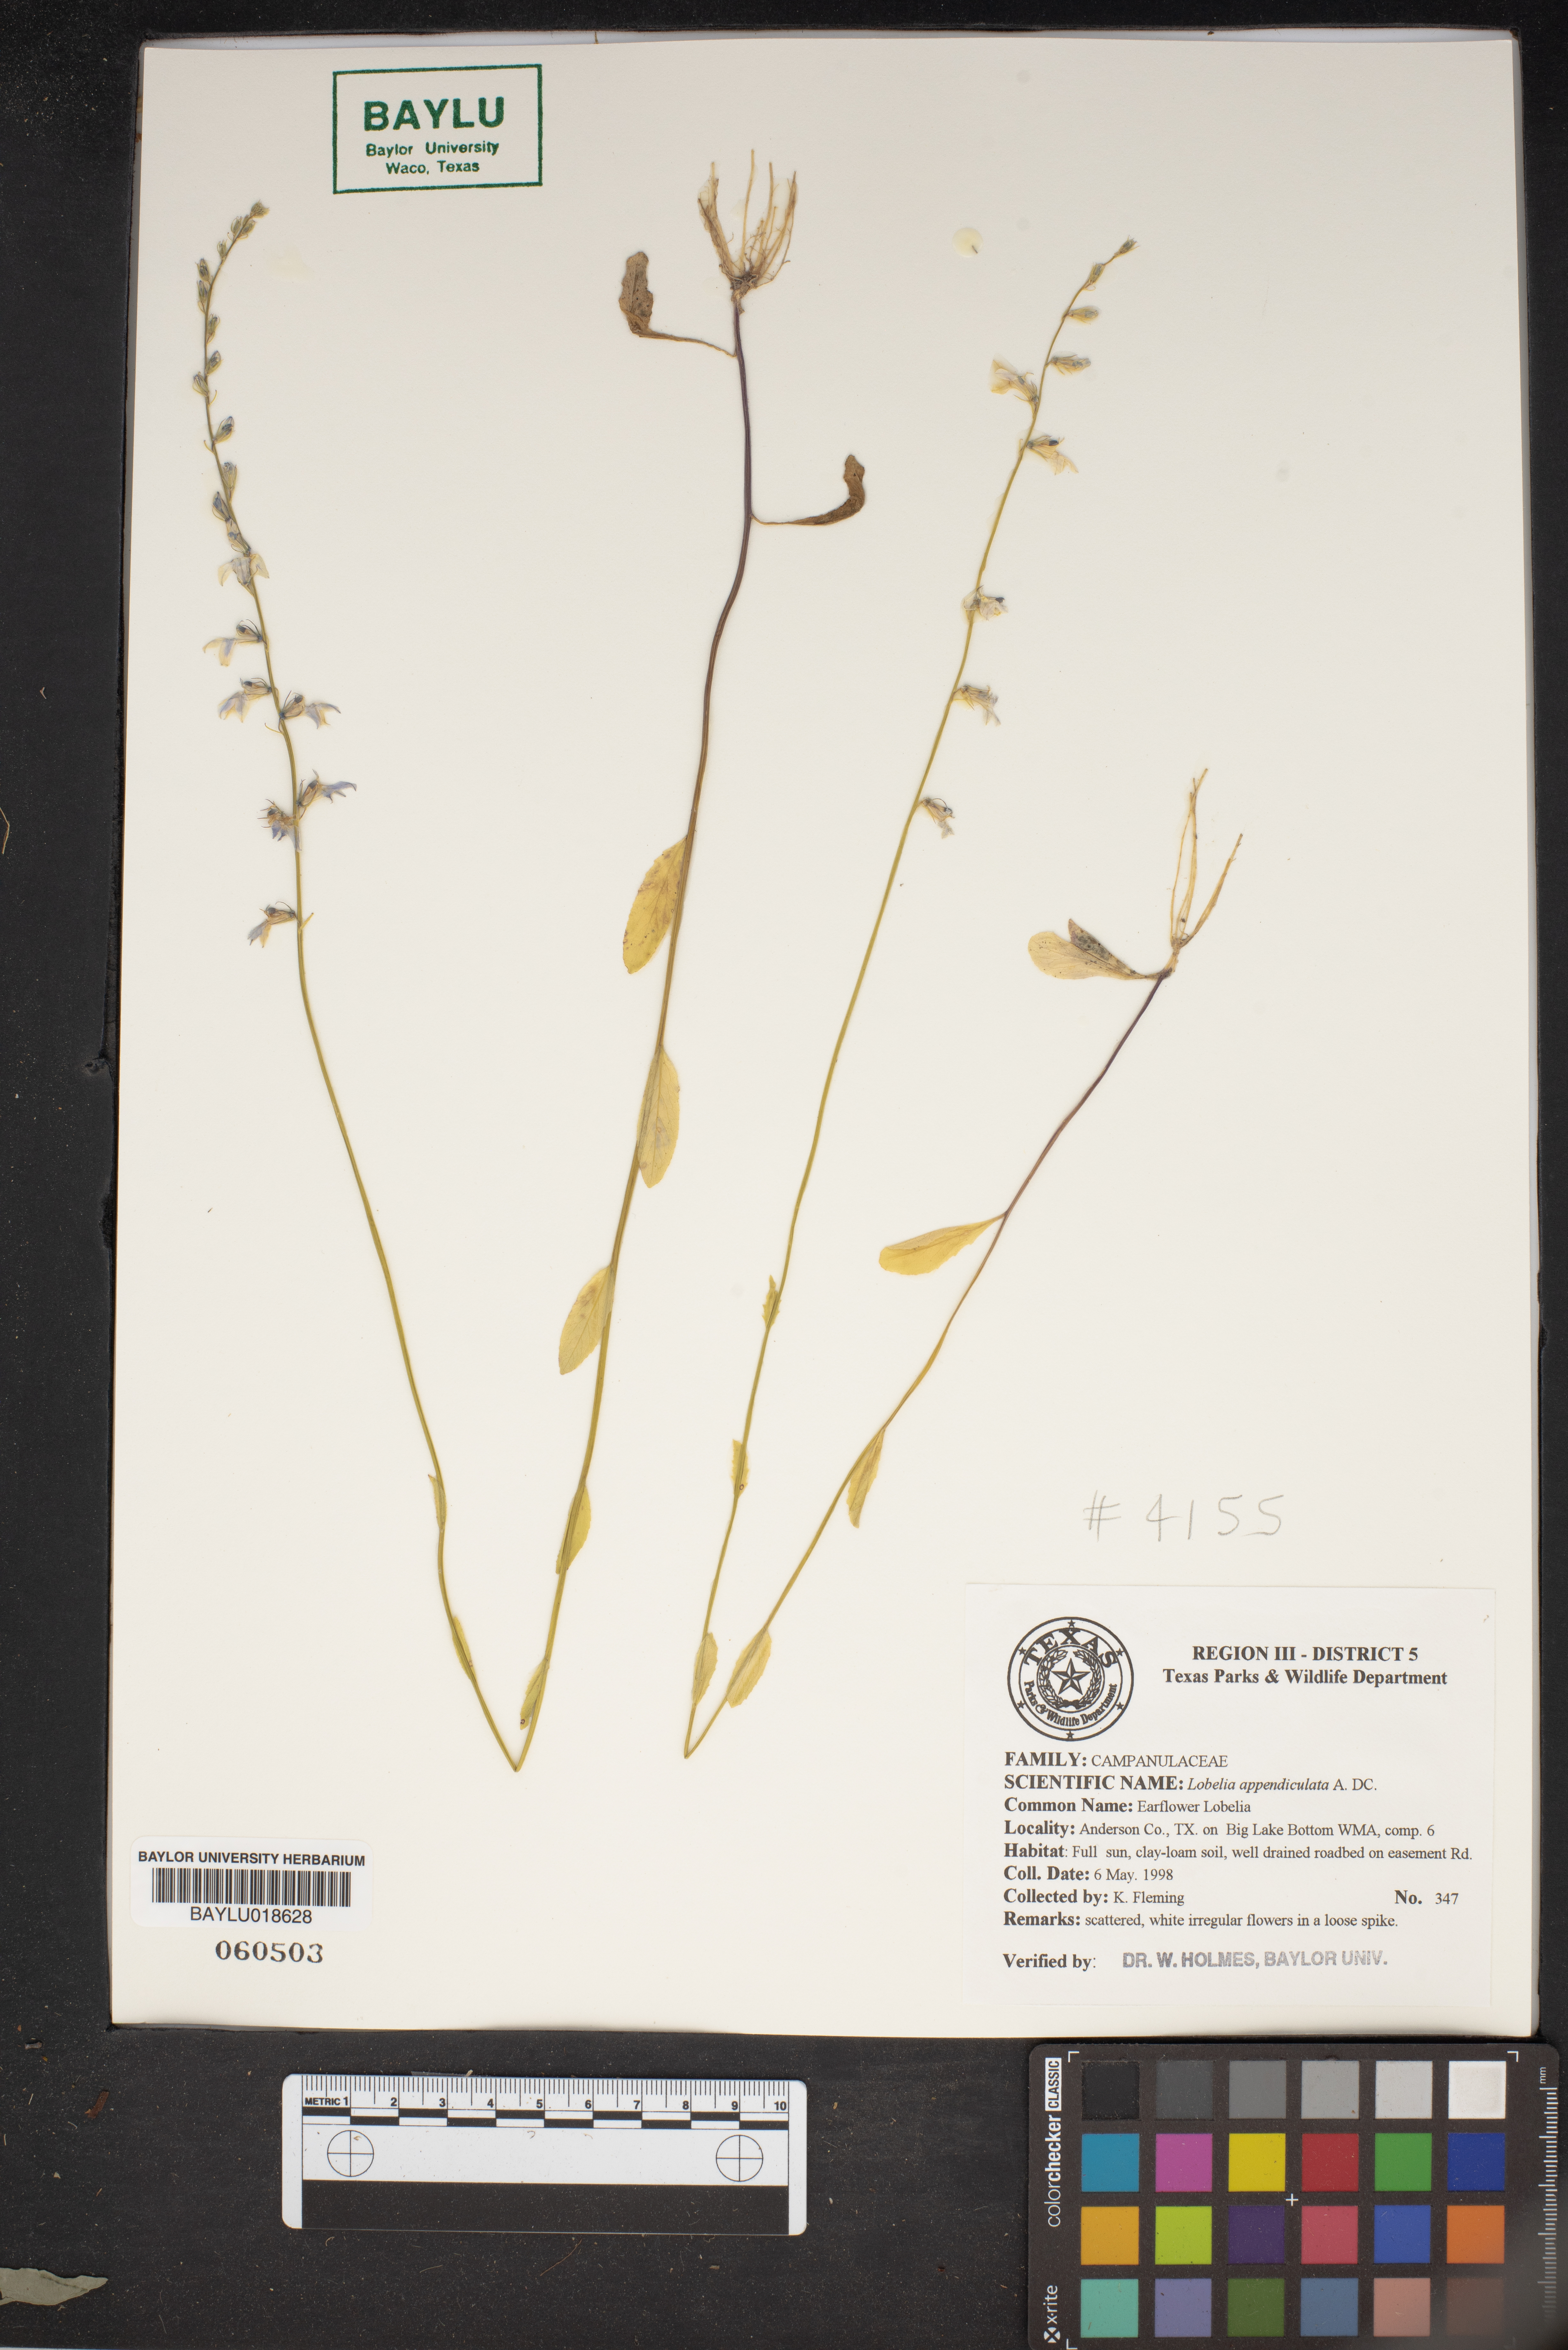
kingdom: Plantae
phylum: Tracheophyta
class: Magnoliopsida
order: Asterales
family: Campanulaceae
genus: Lobelia
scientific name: Lobelia appendiculata
